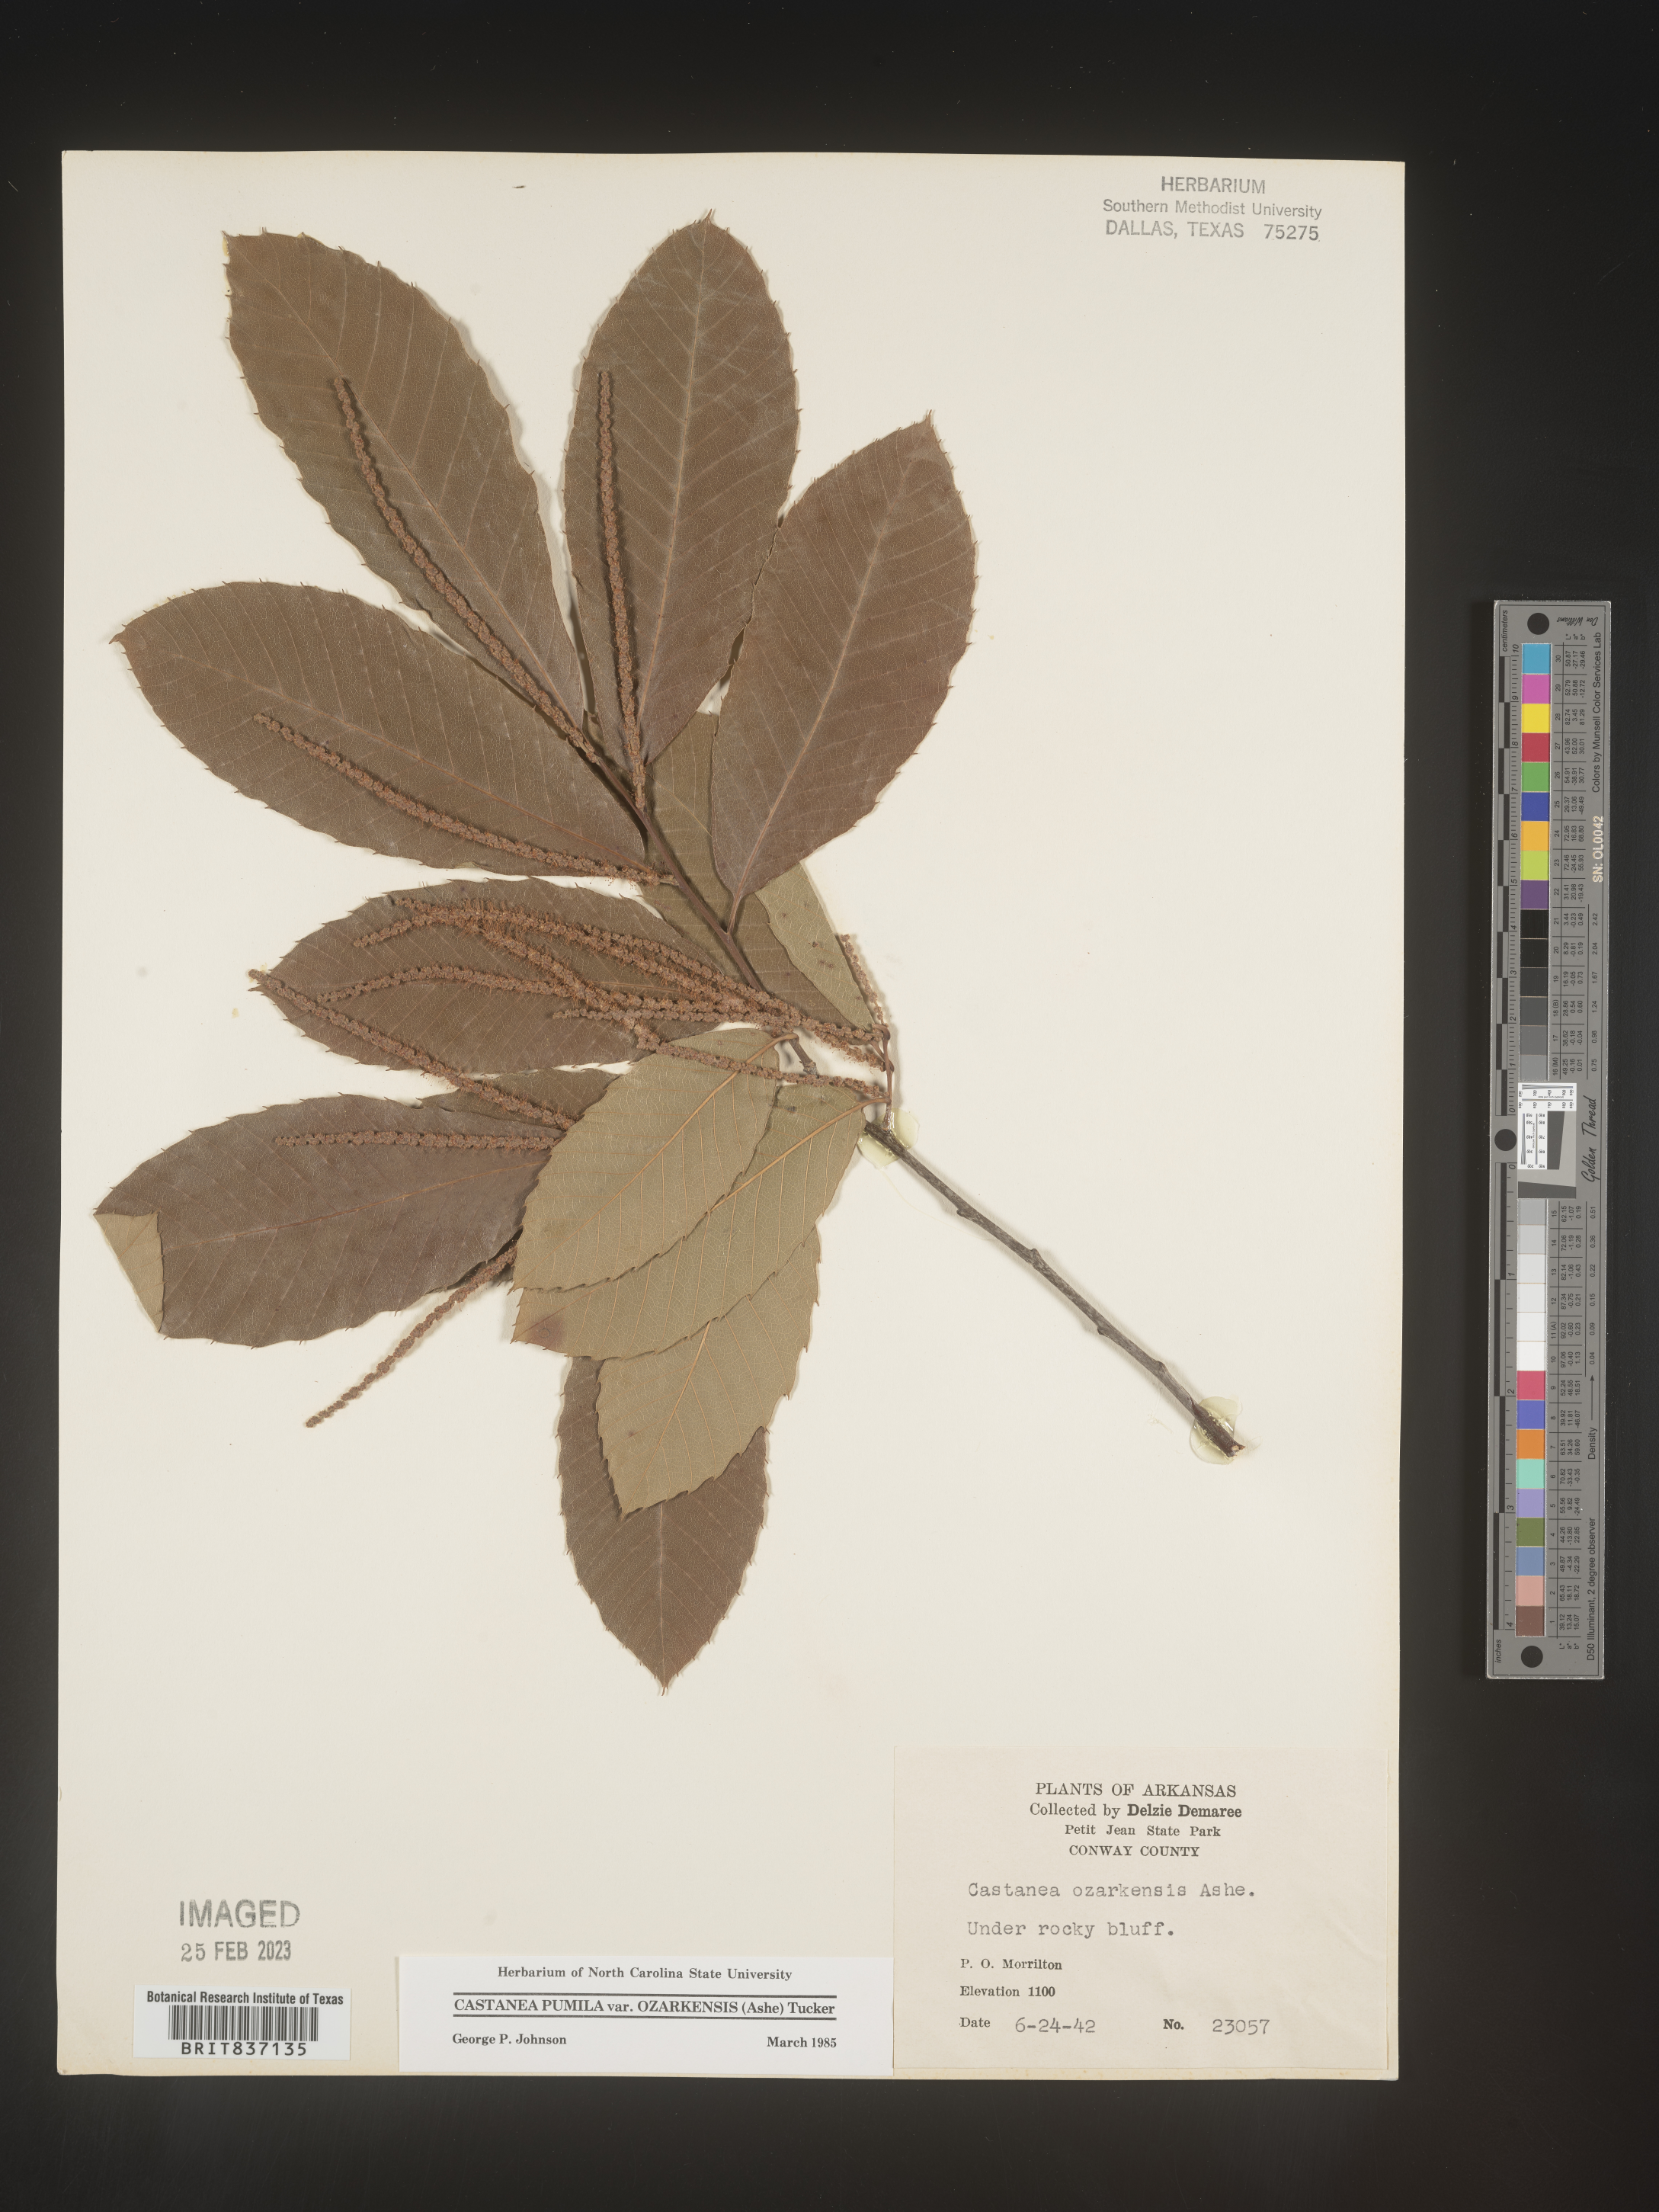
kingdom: Plantae
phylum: Tracheophyta
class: Magnoliopsida
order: Fagales
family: Fagaceae
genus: Castanea
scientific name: Castanea pumila
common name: Chinkapin
